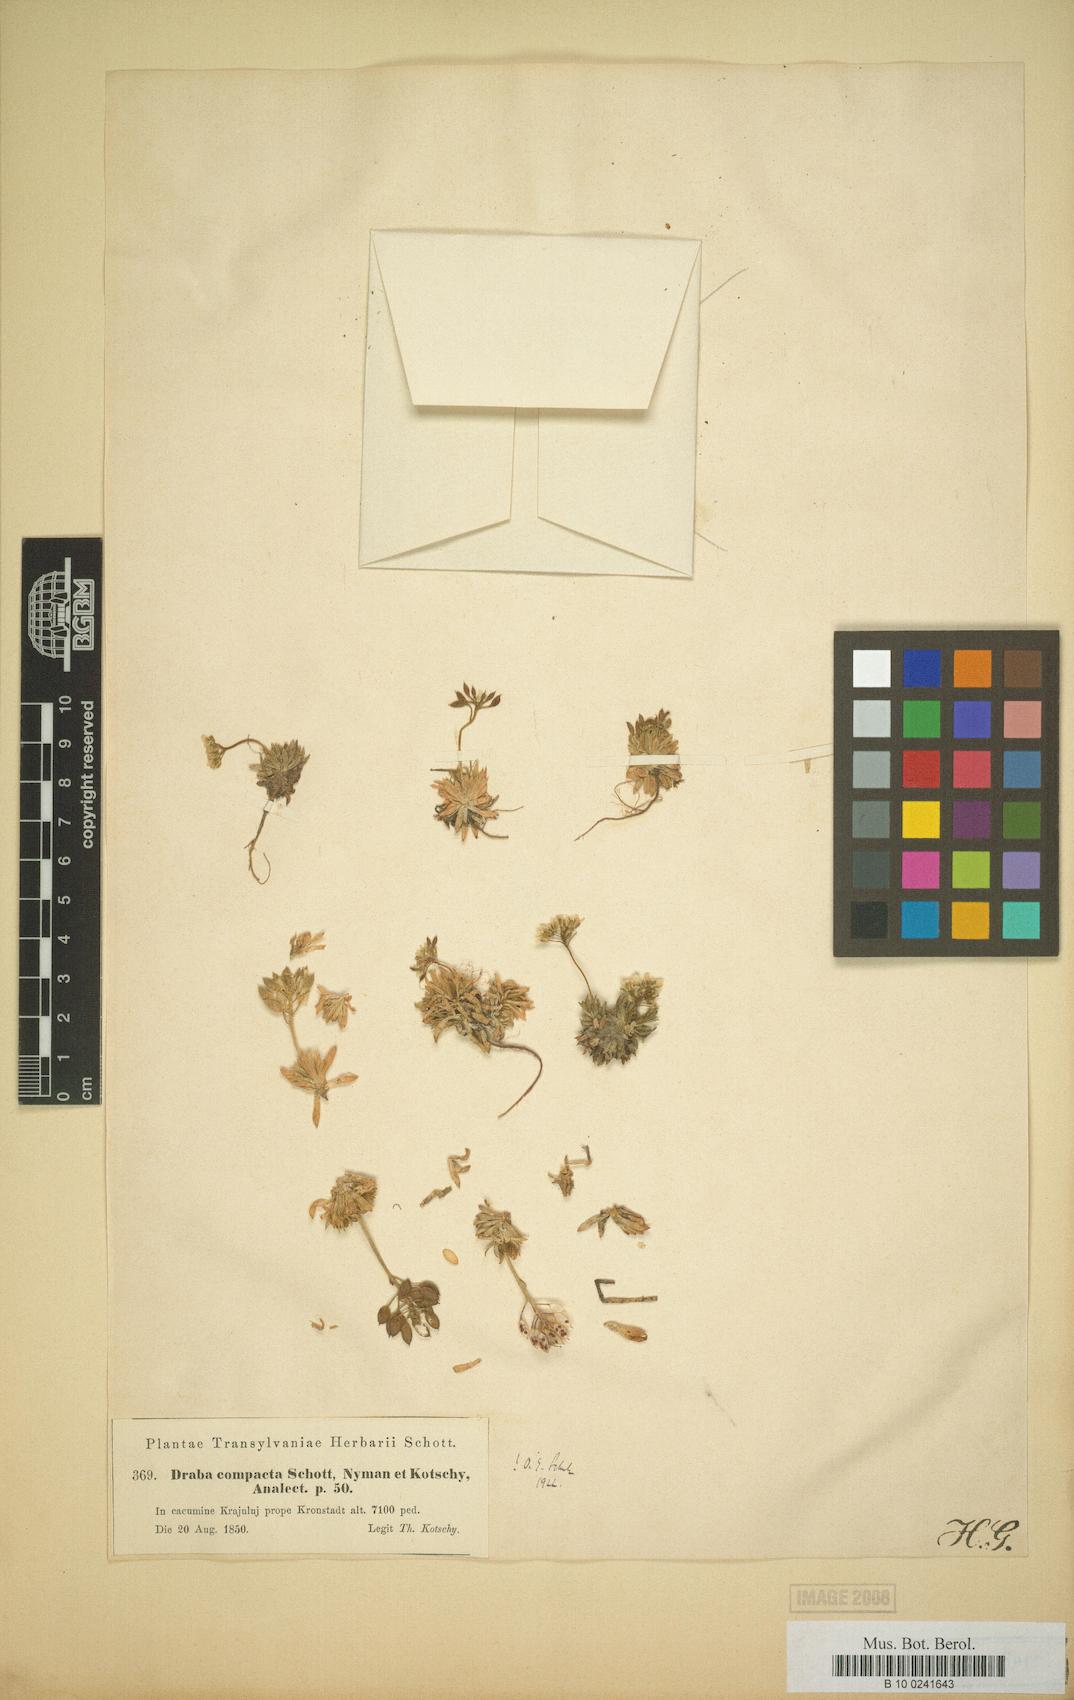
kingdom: Plantae
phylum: Tracheophyta
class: Magnoliopsida
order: Brassicales
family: Brassicaceae
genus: Draba
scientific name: Draba lasiocarpa
